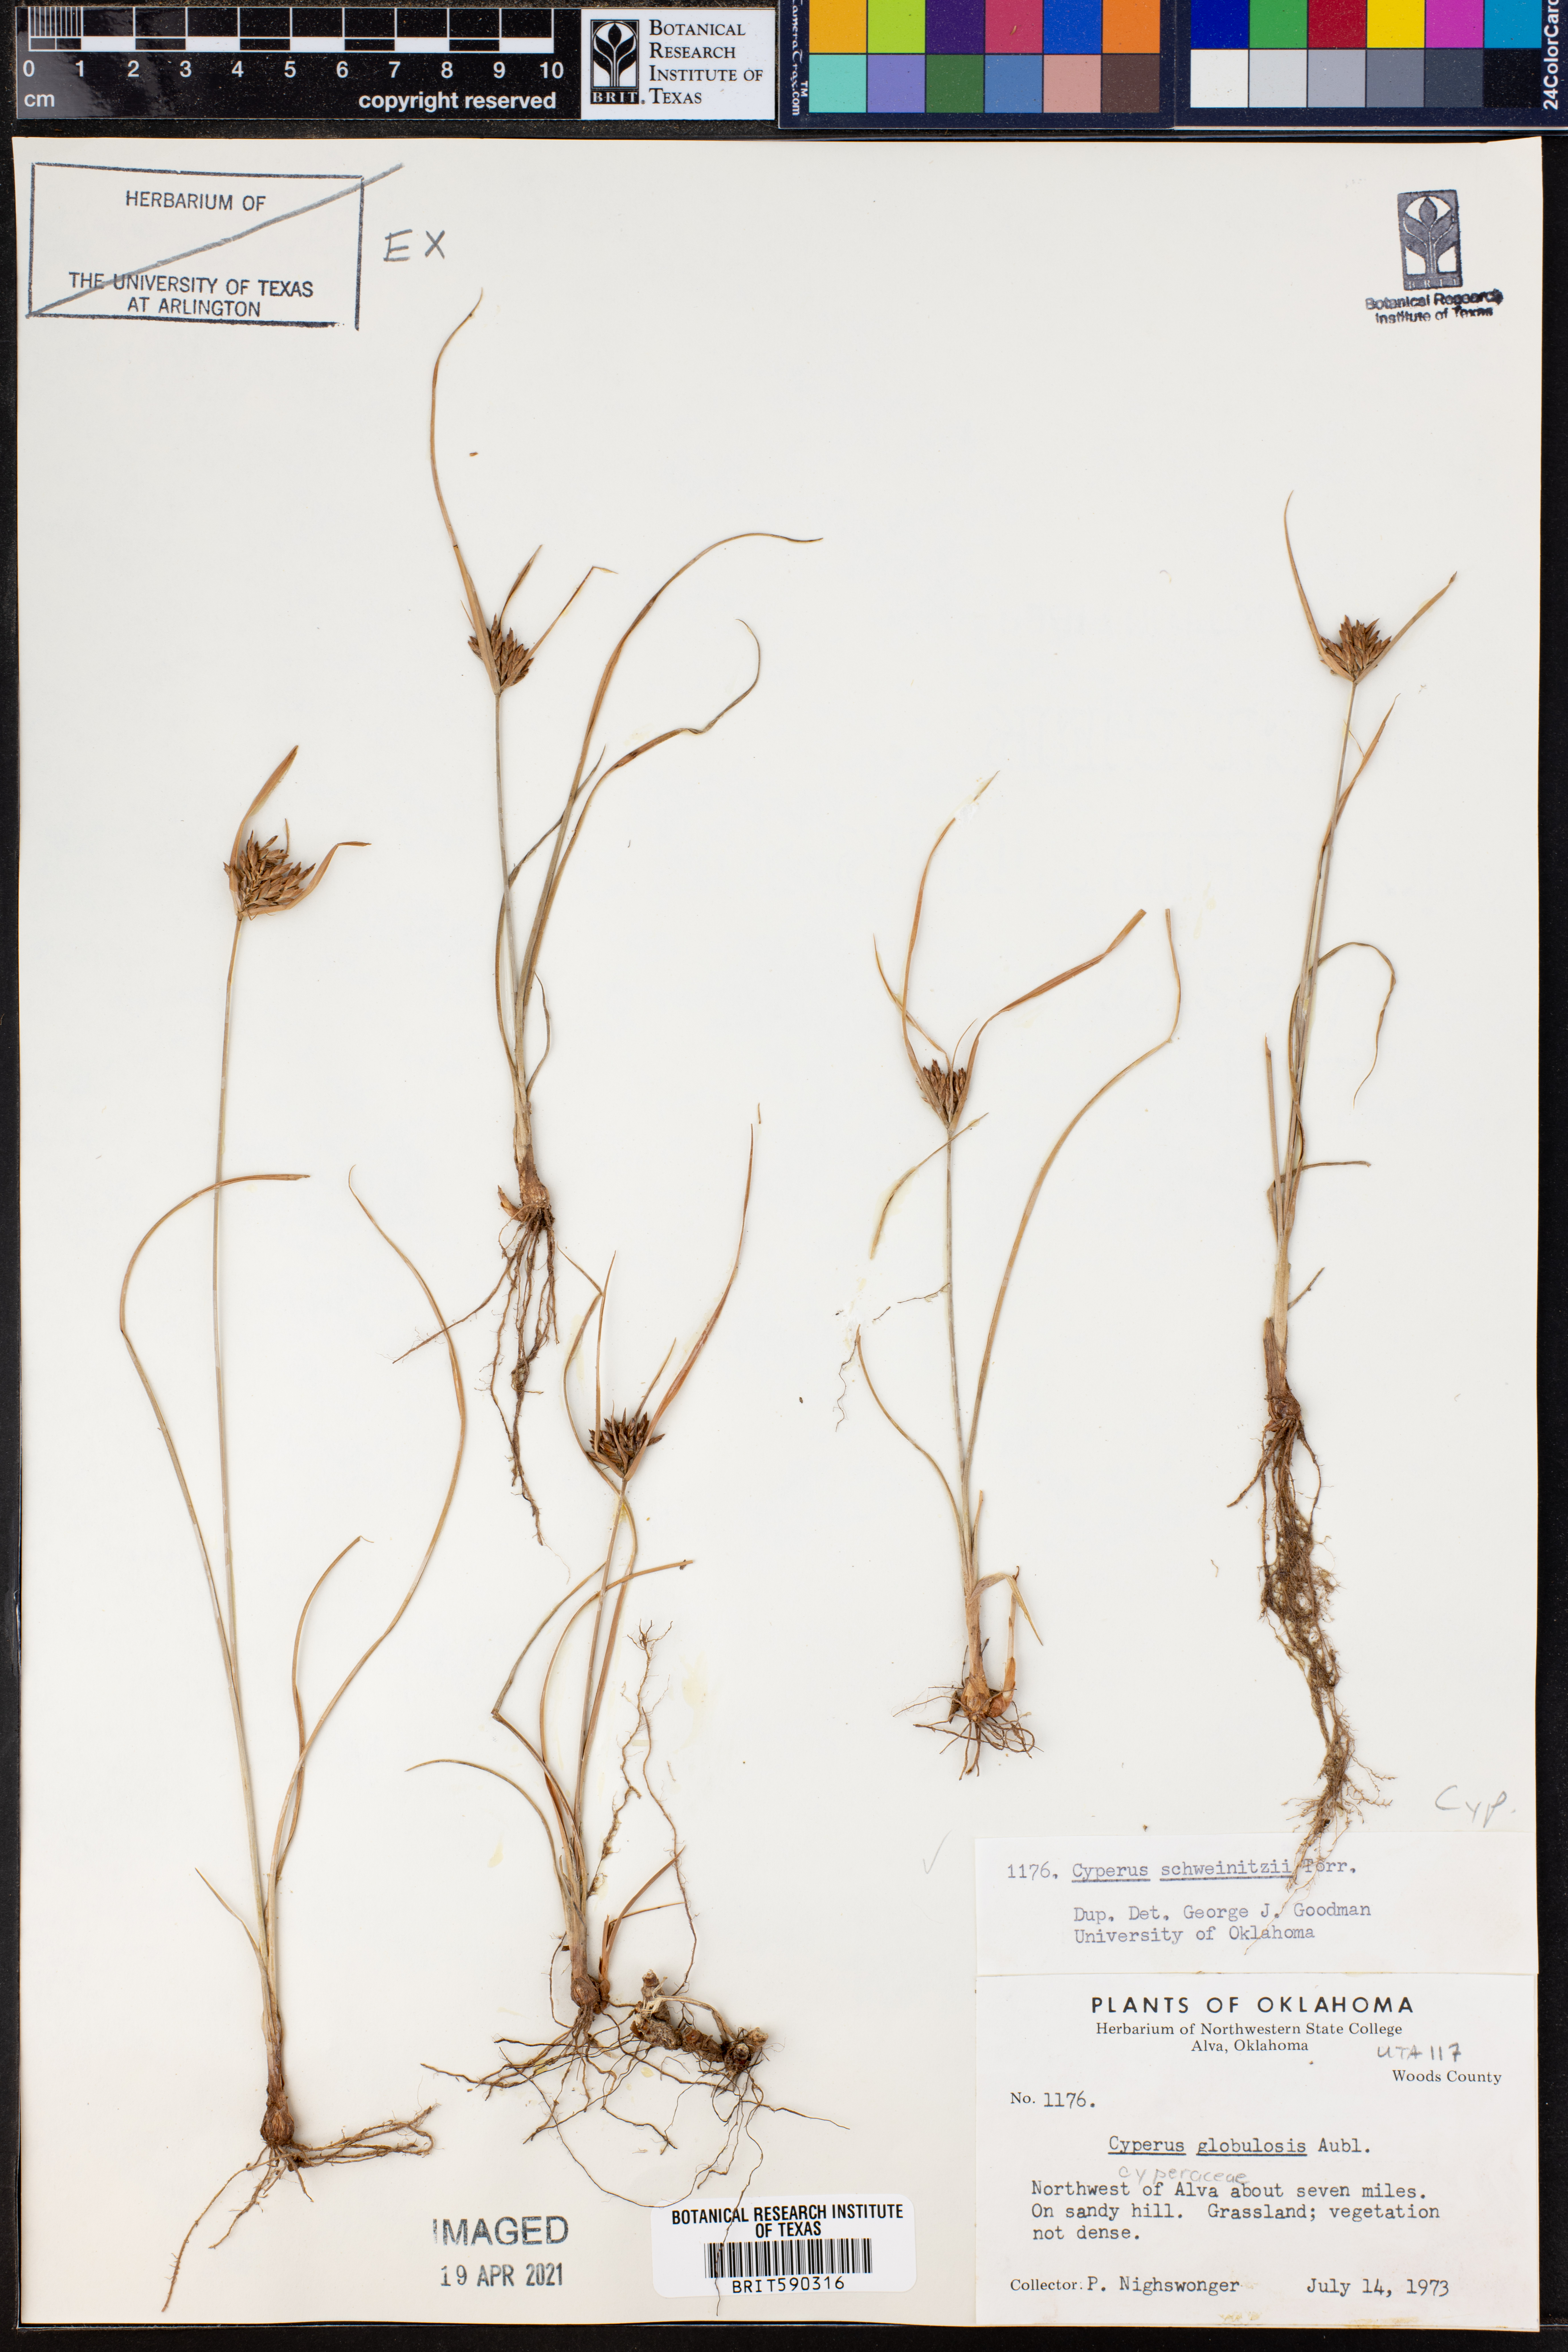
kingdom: Plantae
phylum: Tracheophyta
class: Liliopsida
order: Poales
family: Cyperaceae
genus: Cyperus
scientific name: Cyperus schweinitzii
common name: Schweinitz's cyperus
